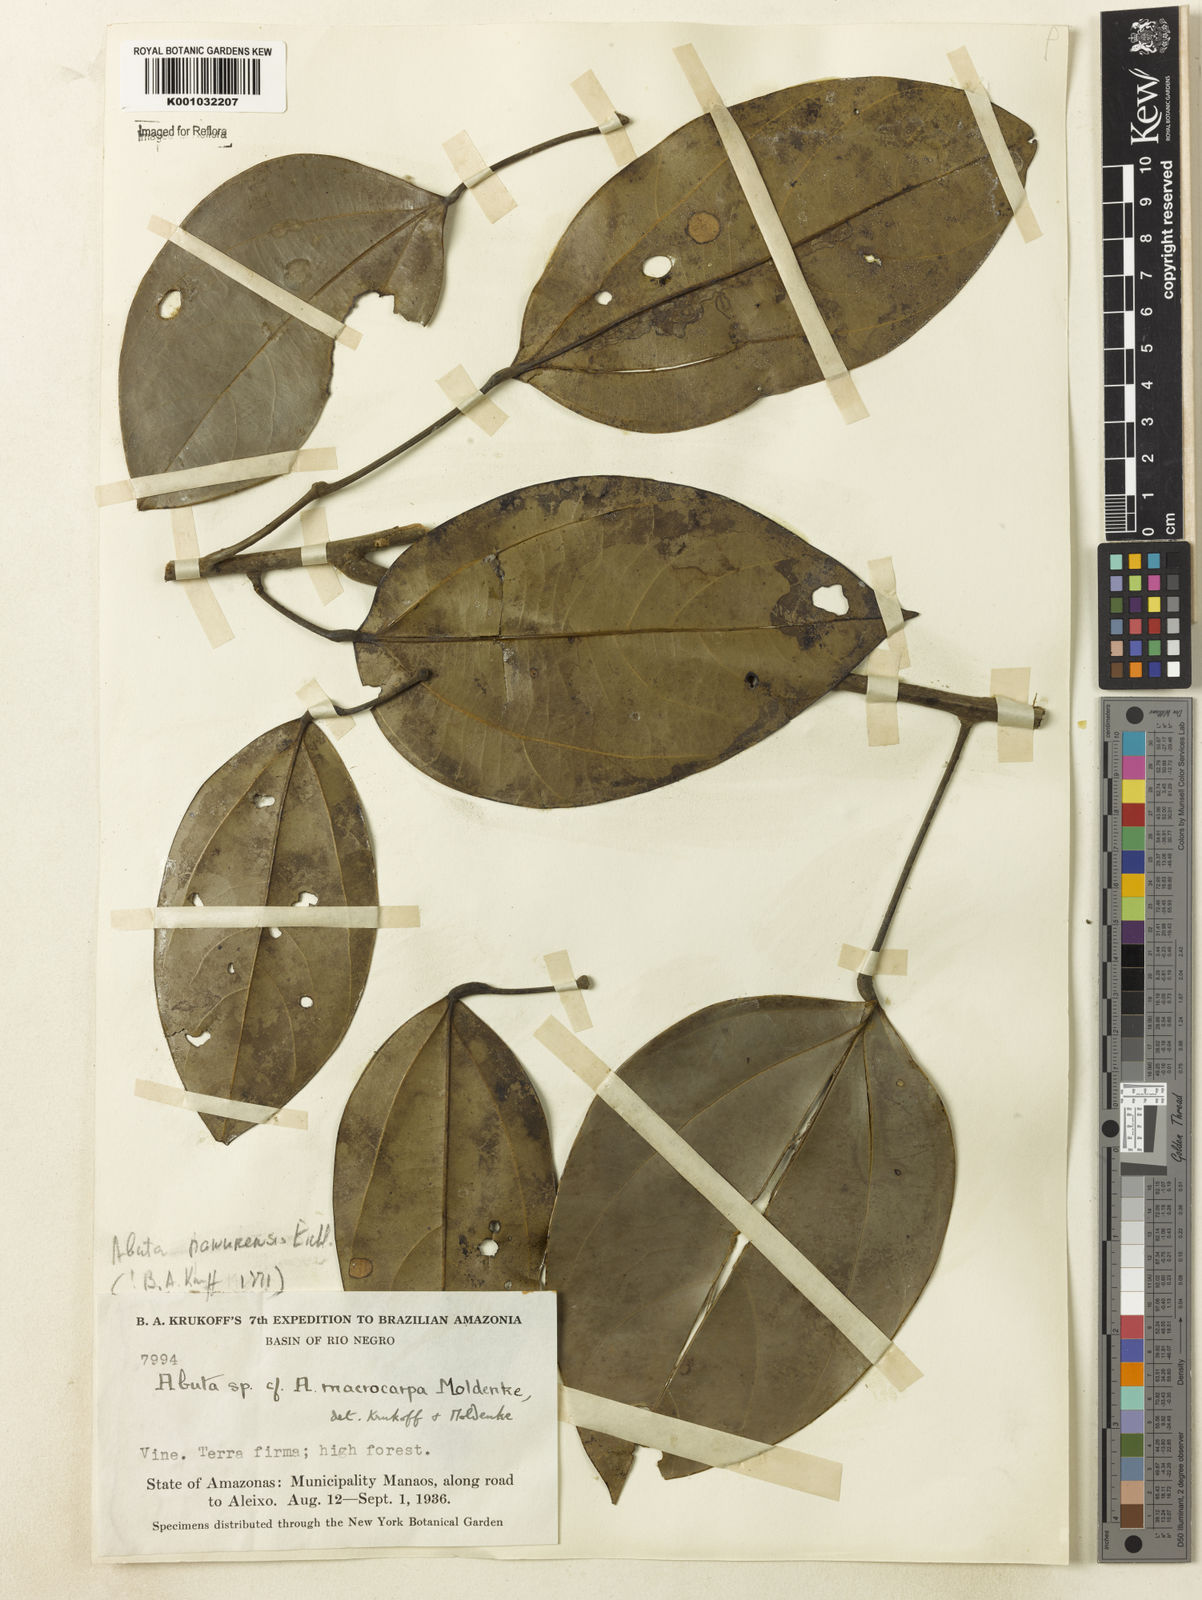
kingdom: Plantae
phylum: Tracheophyta
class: Magnoliopsida
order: Ranunculales
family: Menispermaceae
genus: Abuta
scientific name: Abuta panurensis
